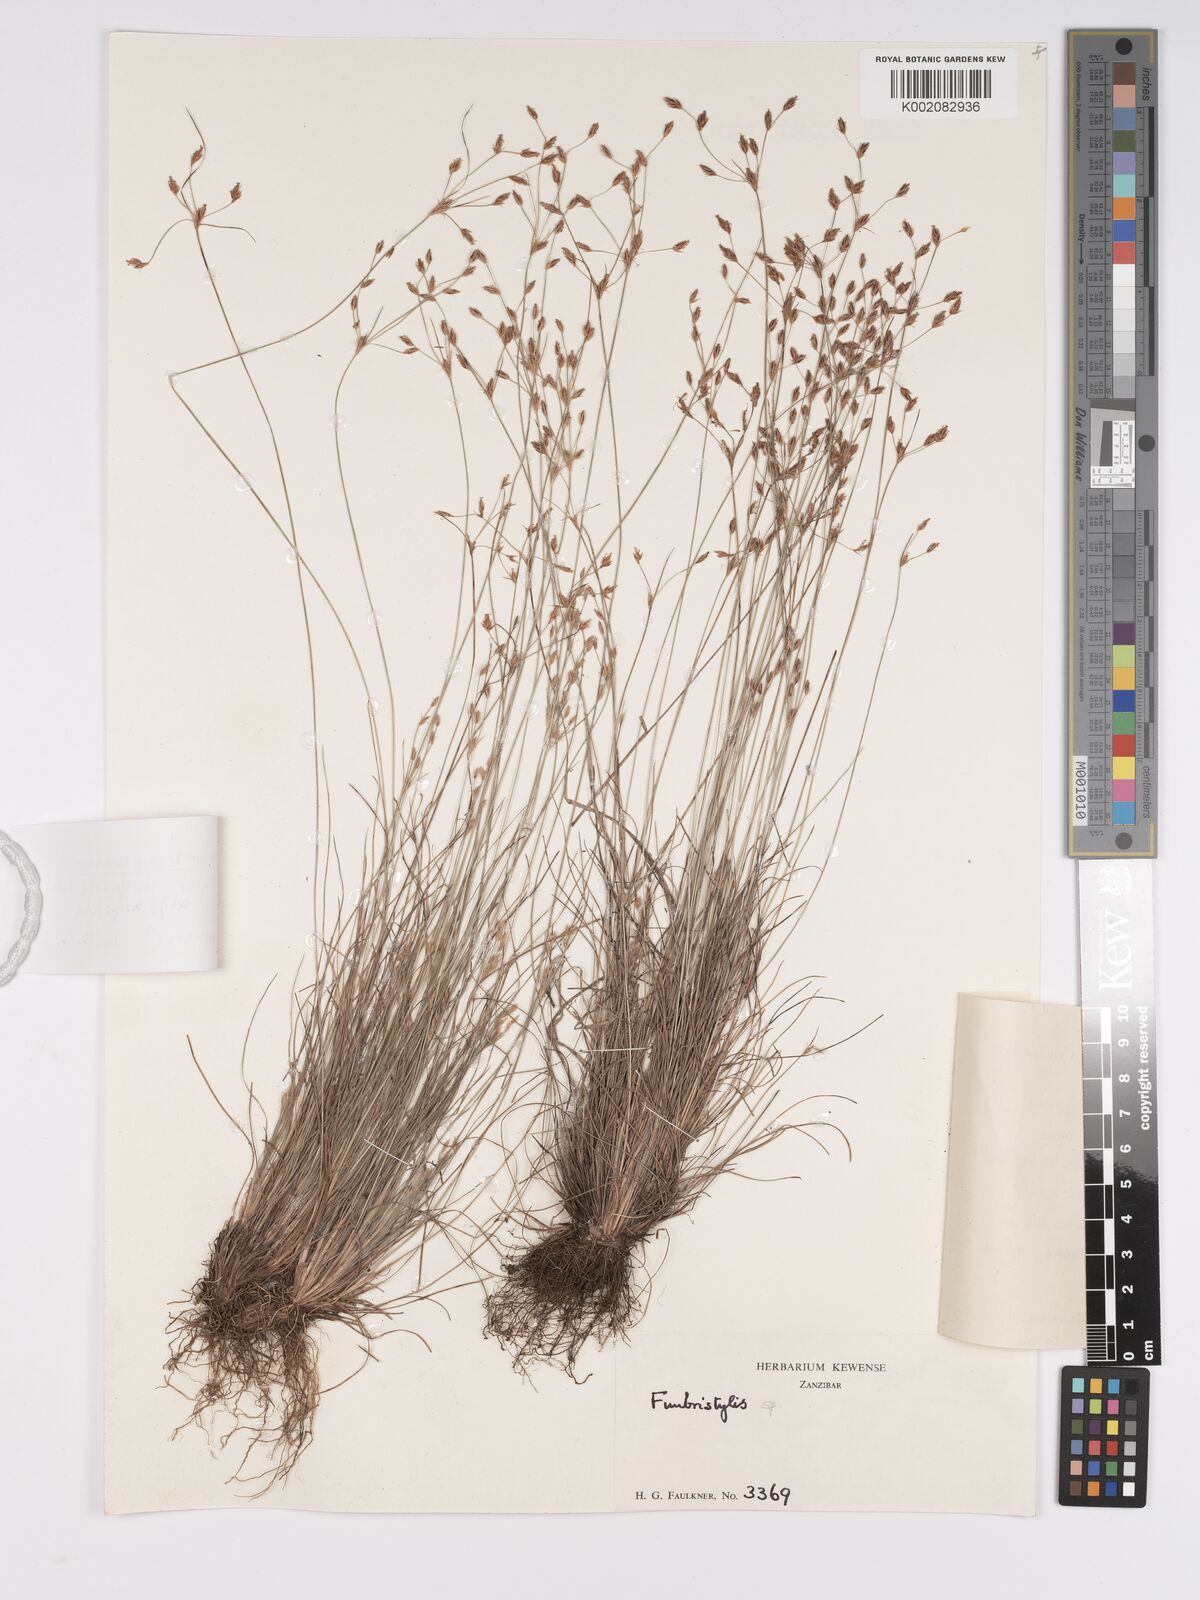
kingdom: Plantae
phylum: Tracheophyta
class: Liliopsida
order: Poales
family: Cyperaceae
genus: Bulbostylis
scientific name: Bulbostylis hispidula
